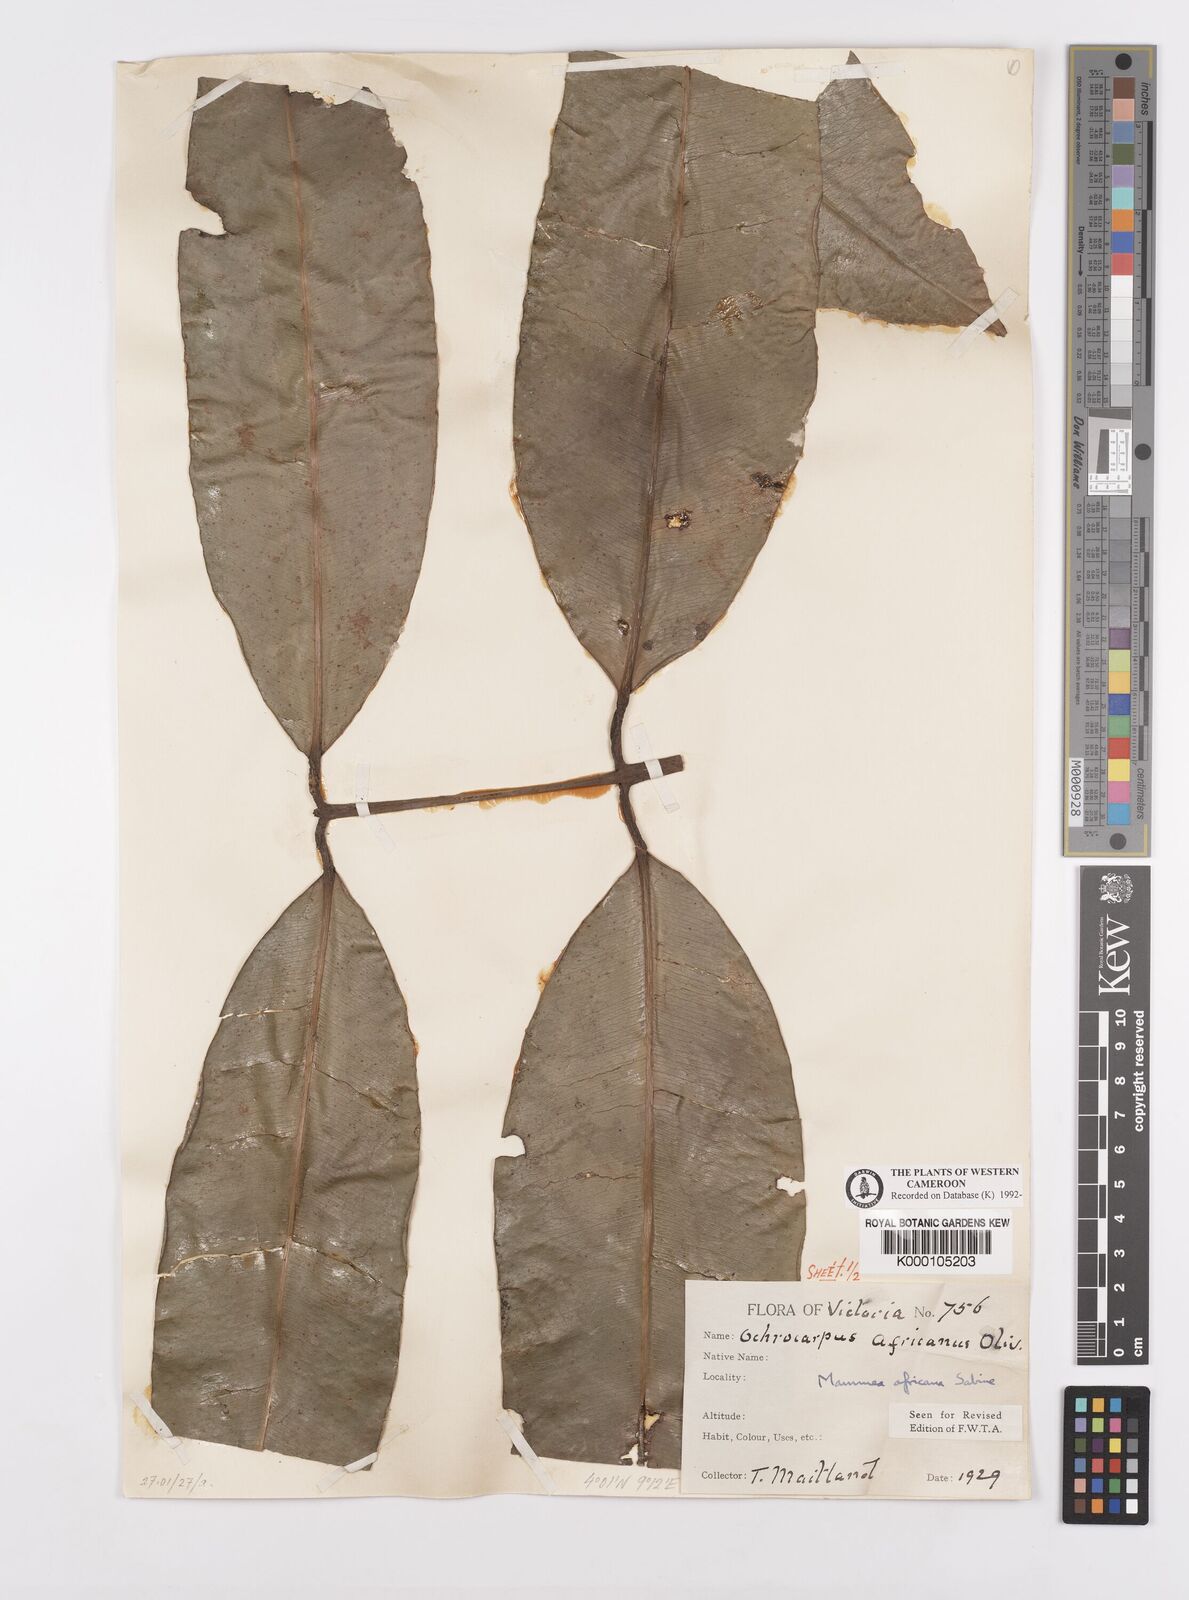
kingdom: Plantae
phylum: Tracheophyta
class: Magnoliopsida
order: Malpighiales
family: Calophyllaceae
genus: Mammea
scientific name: Mammea africana
